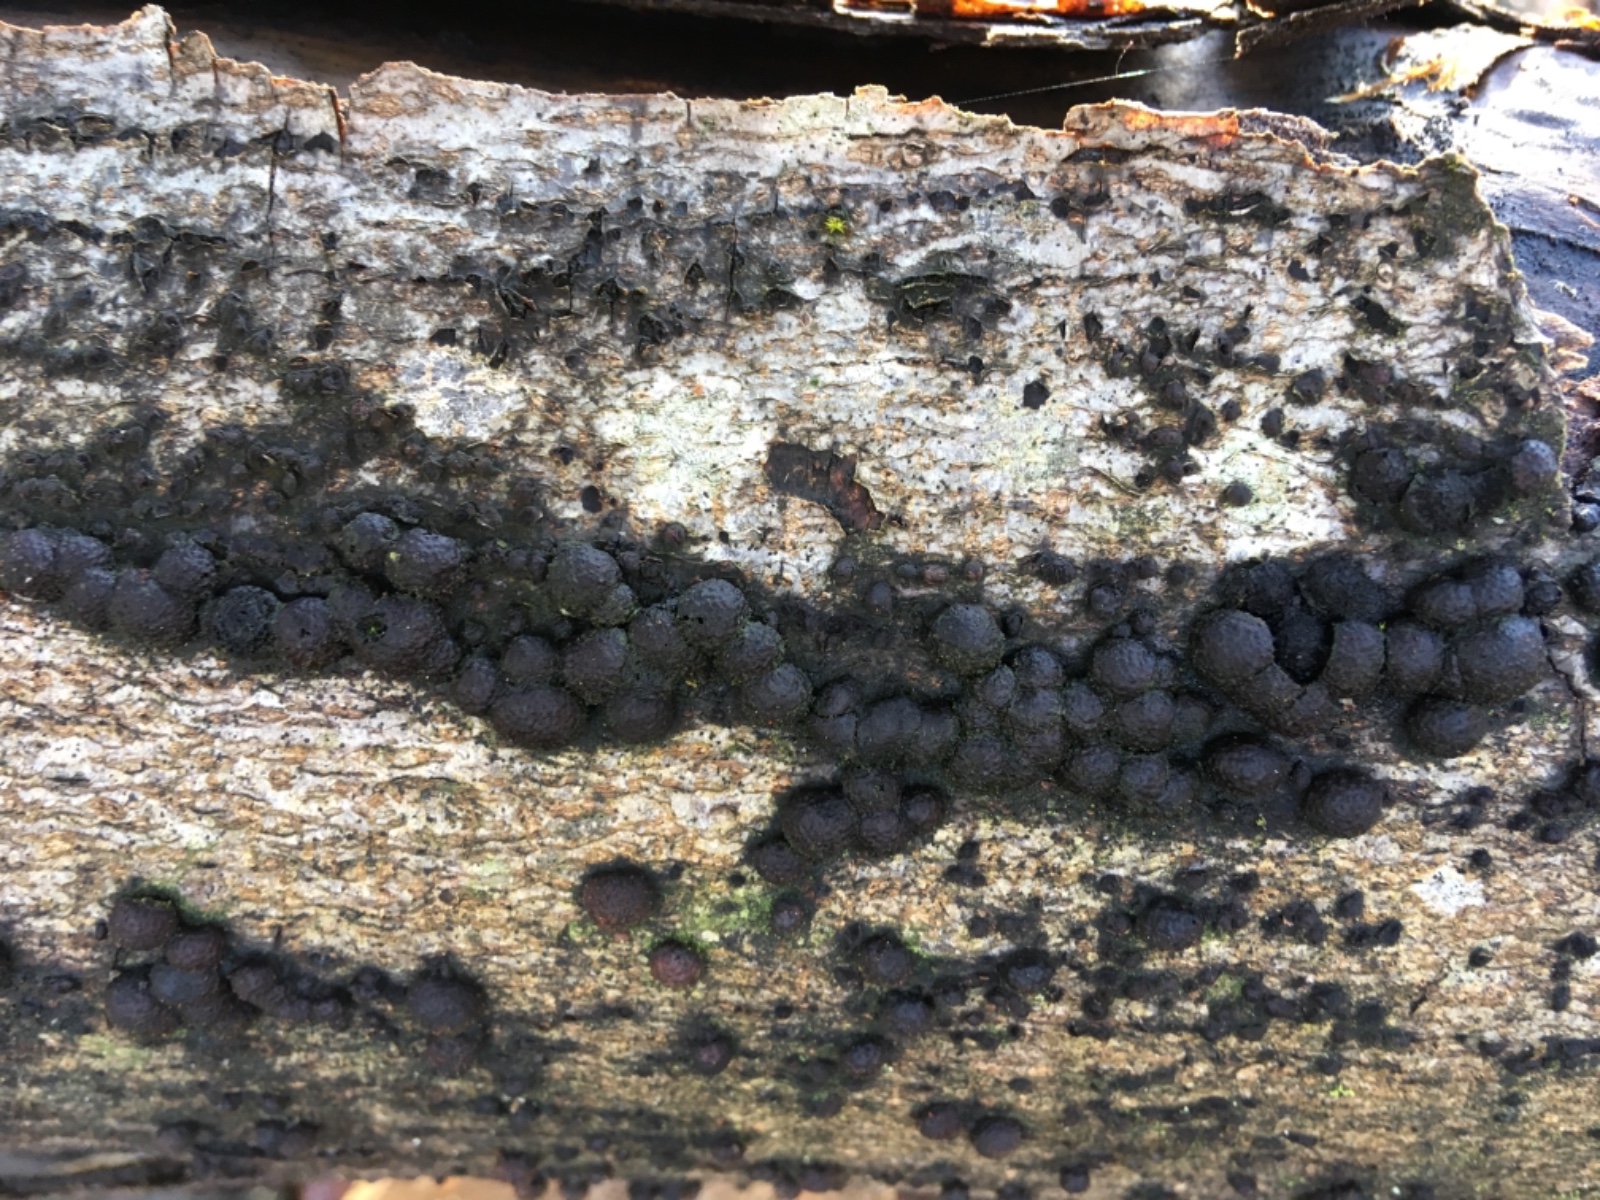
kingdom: Fungi
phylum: Ascomycota
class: Sordariomycetes
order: Xylariales
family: Hypoxylaceae
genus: Hypoxylon
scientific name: Hypoxylon fragiforme
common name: kuljordbær
